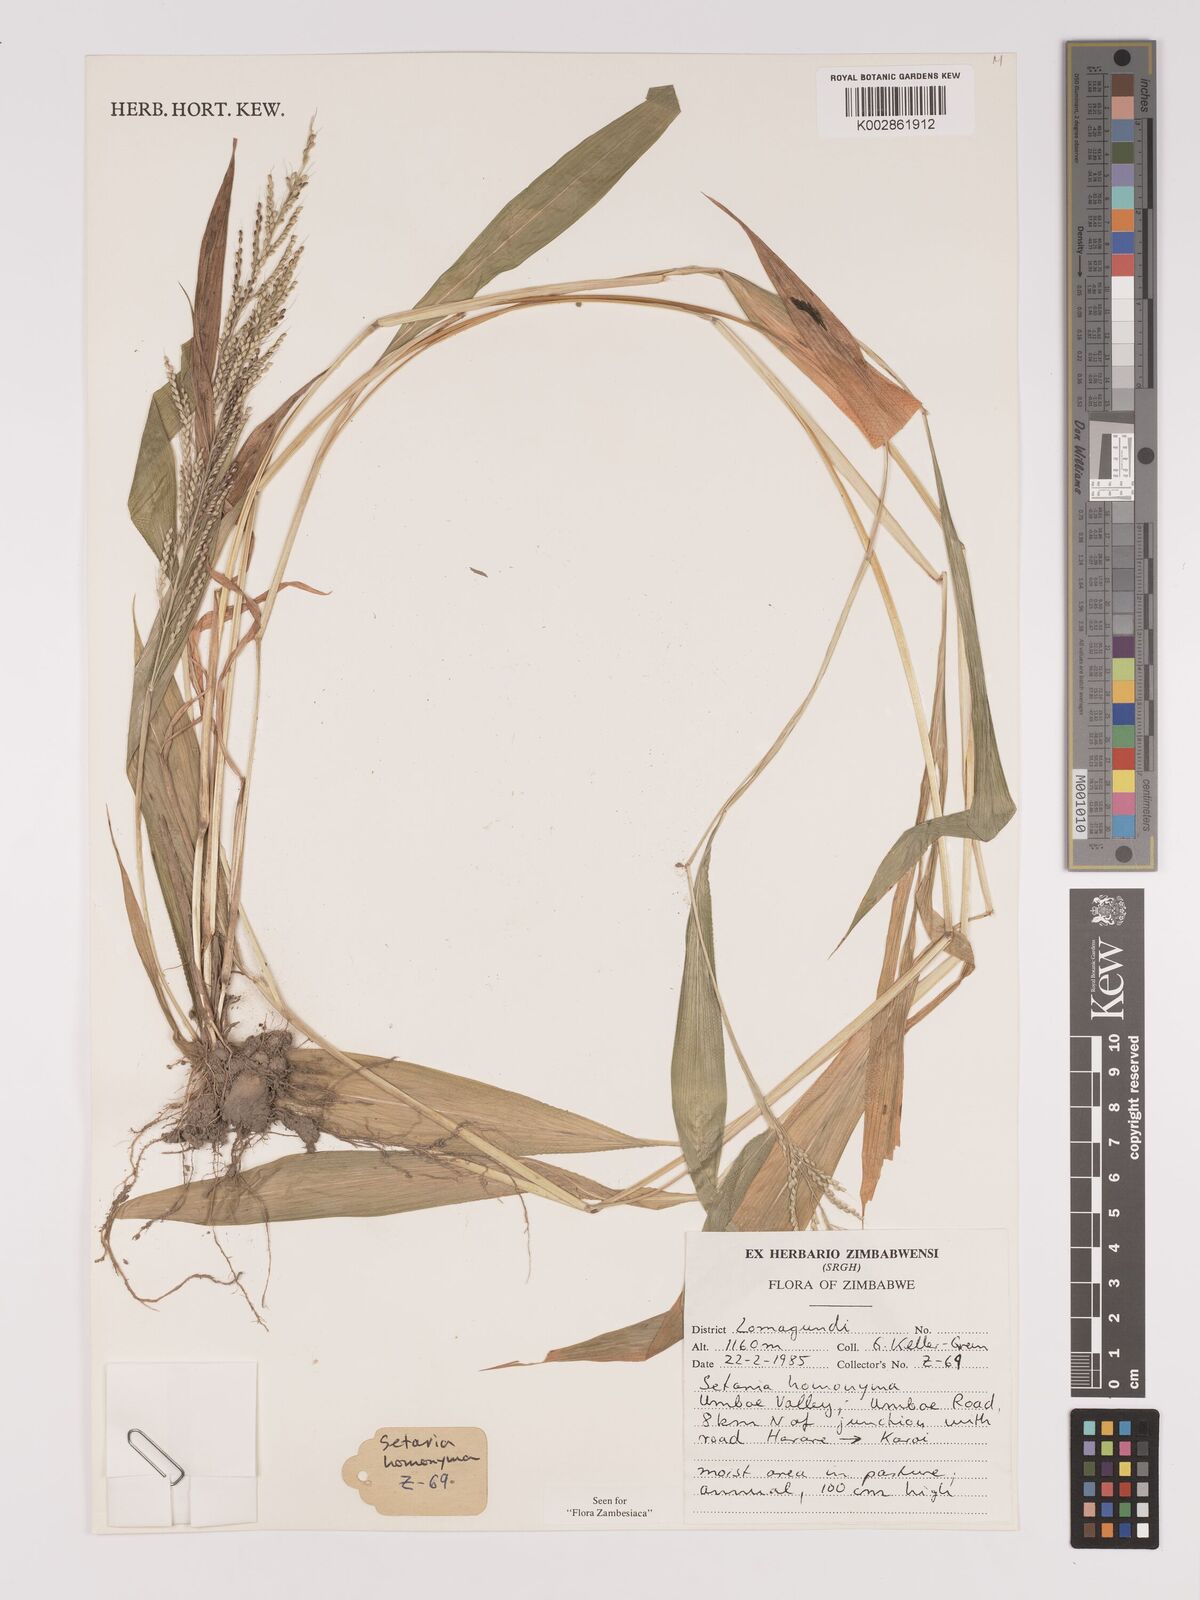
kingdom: Plantae
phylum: Tracheophyta
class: Liliopsida
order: Poales
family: Poaceae
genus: Setaria
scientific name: Setaria homonyma
